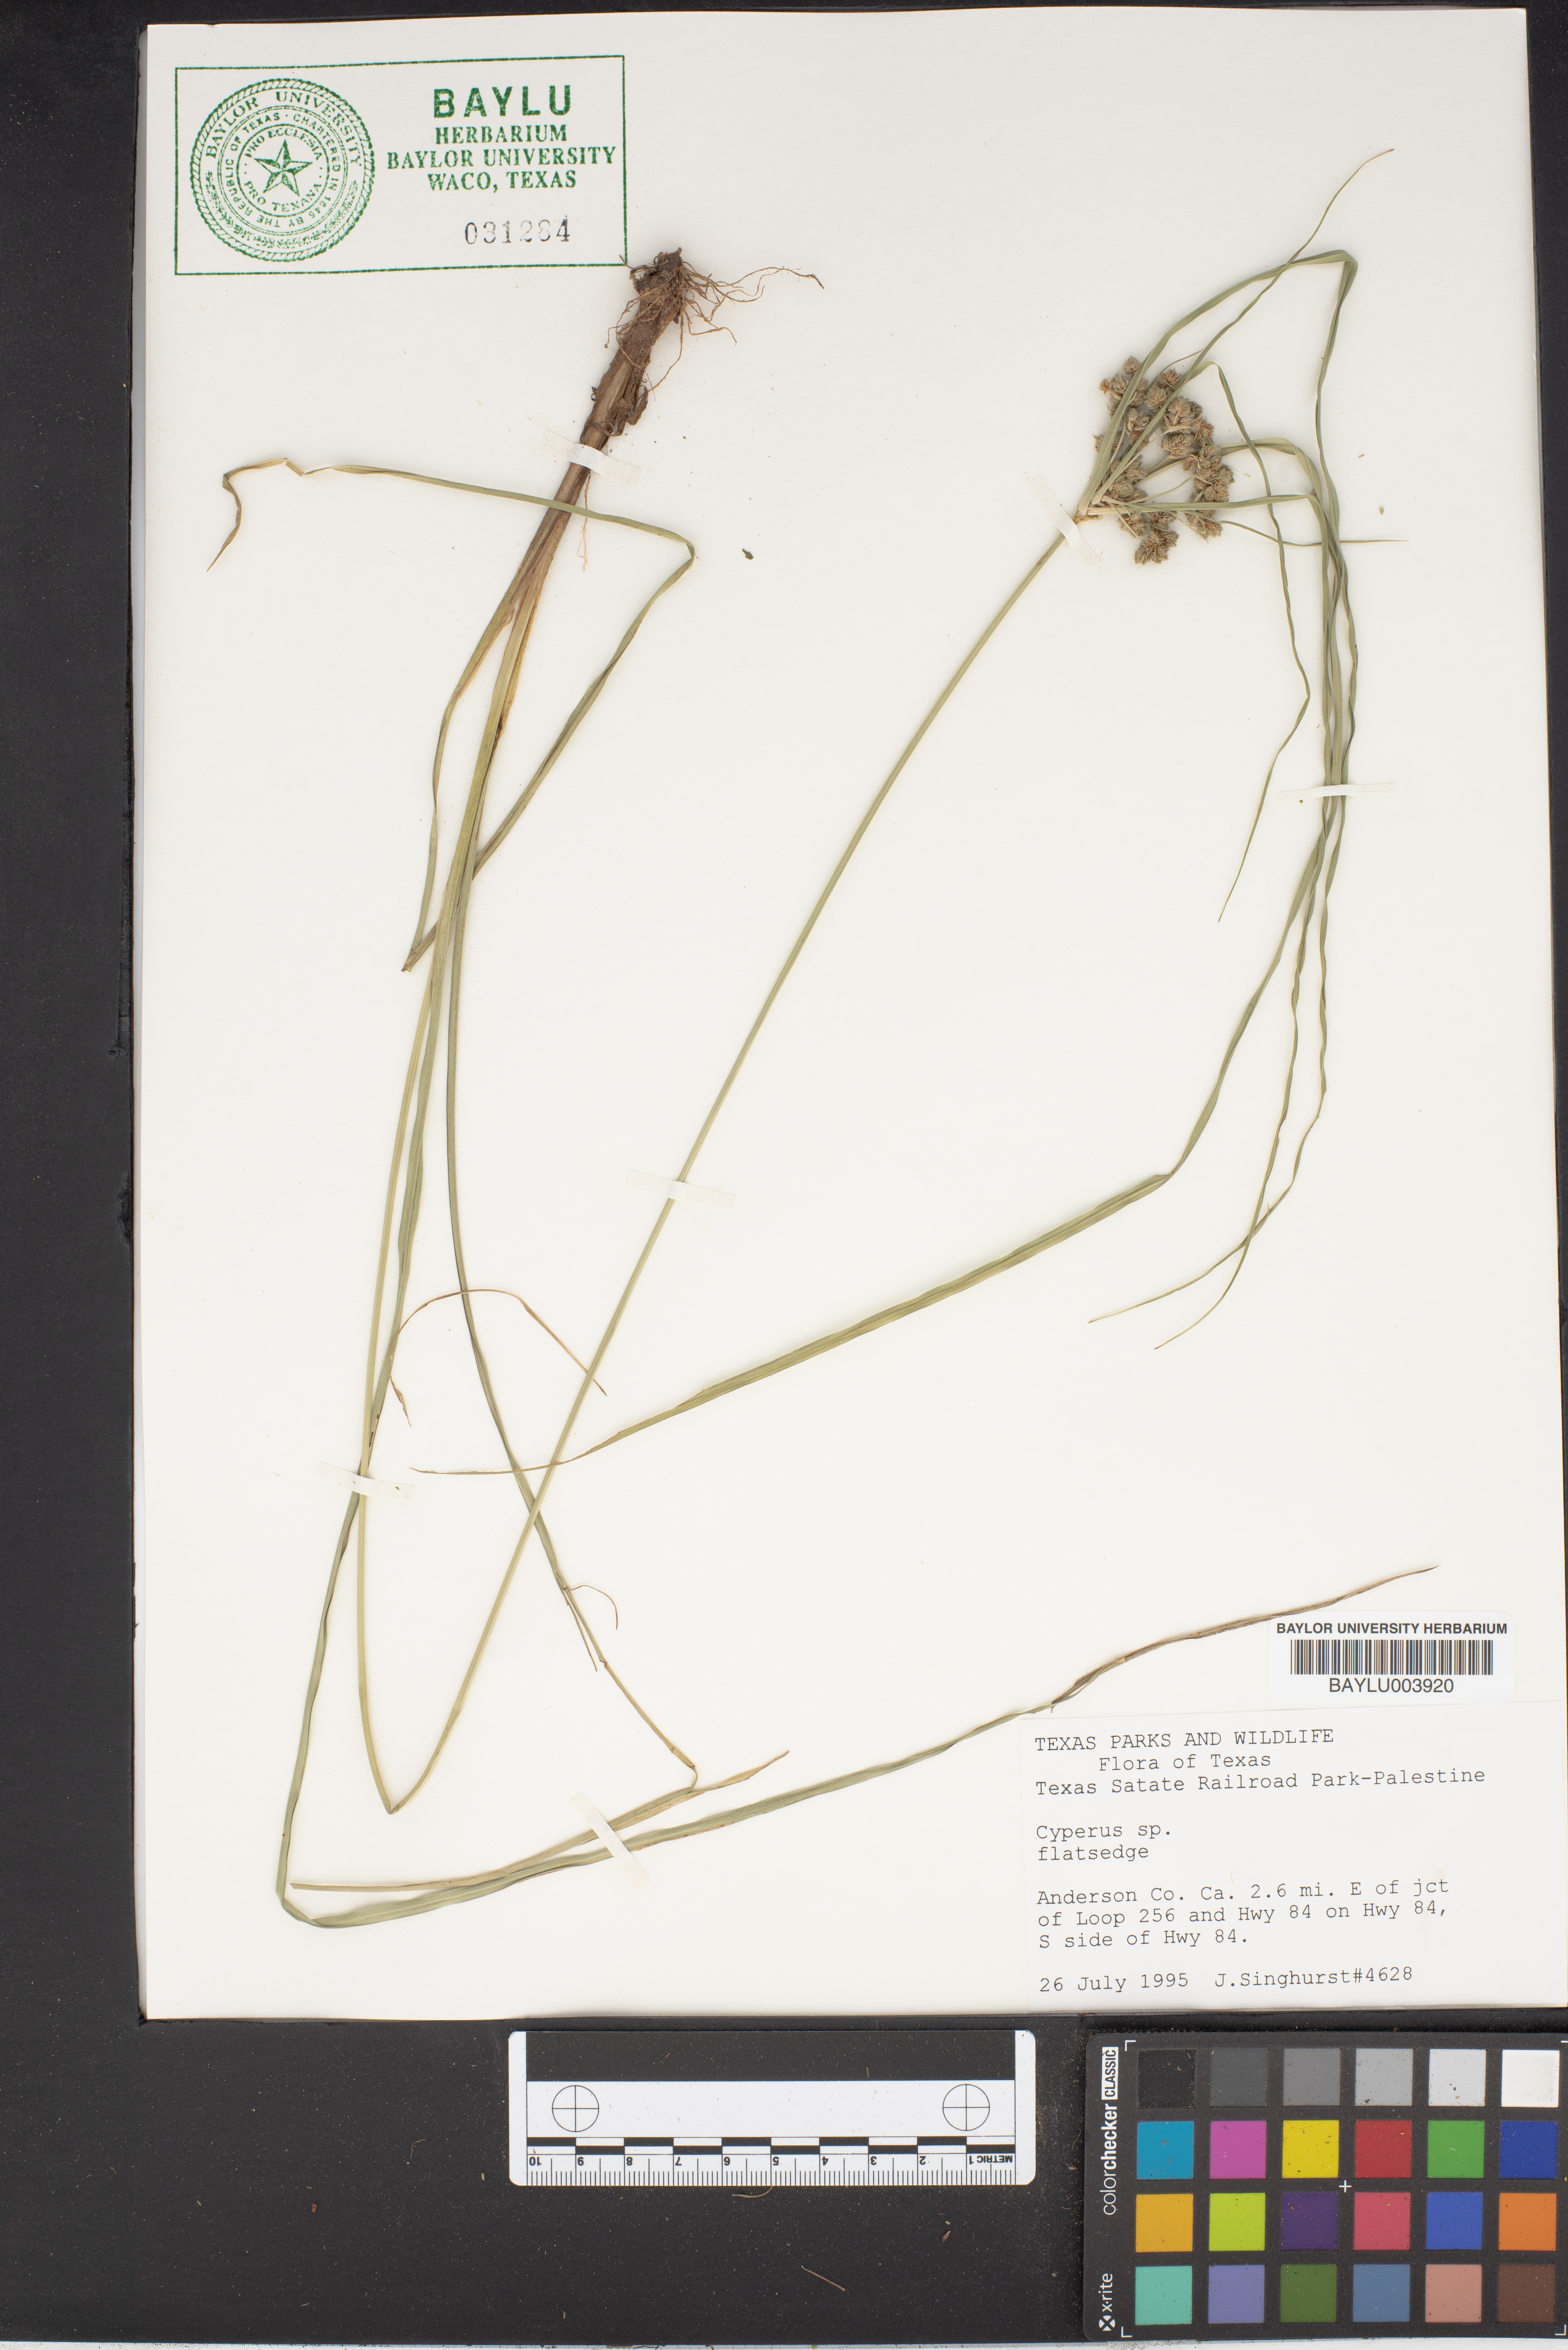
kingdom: Plantae
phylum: Tracheophyta
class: Liliopsida
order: Poales
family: Cyperaceae
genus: Cyperus
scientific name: Cyperus
